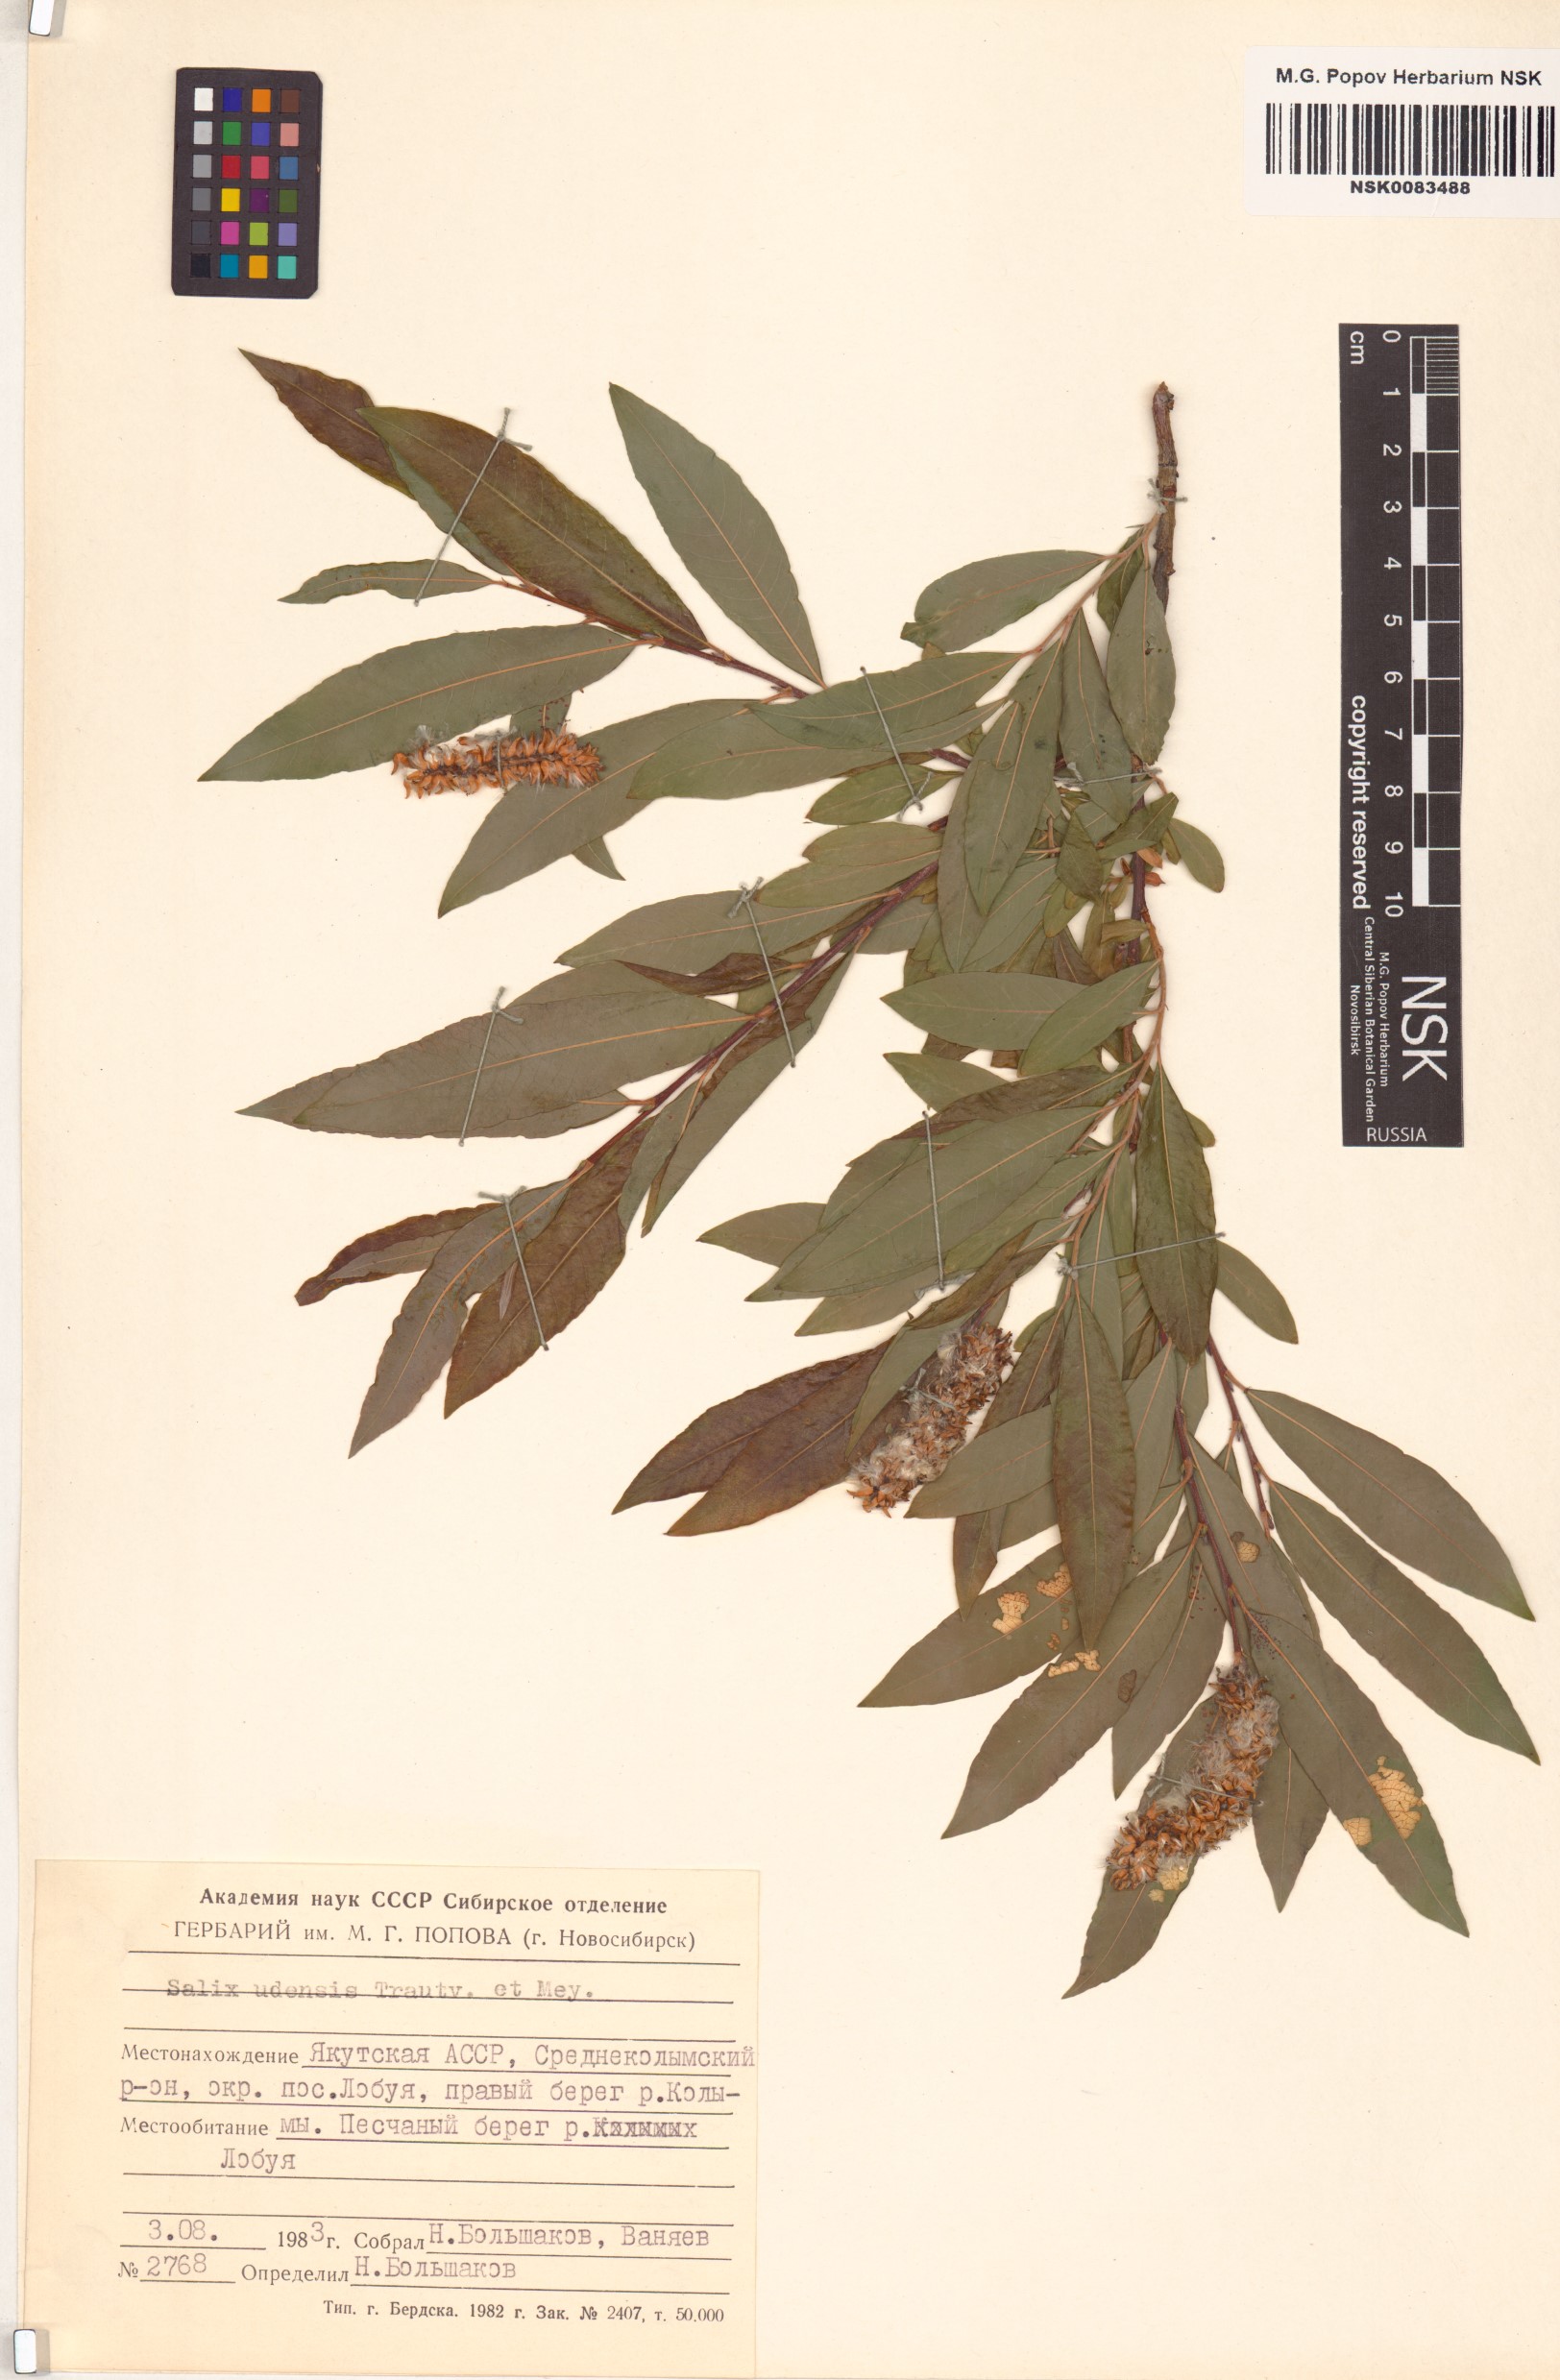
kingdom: Plantae
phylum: Tracheophyta
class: Magnoliopsida
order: Malpighiales
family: Salicaceae
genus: Salix
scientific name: Salix udensis
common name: Sachalin willow
